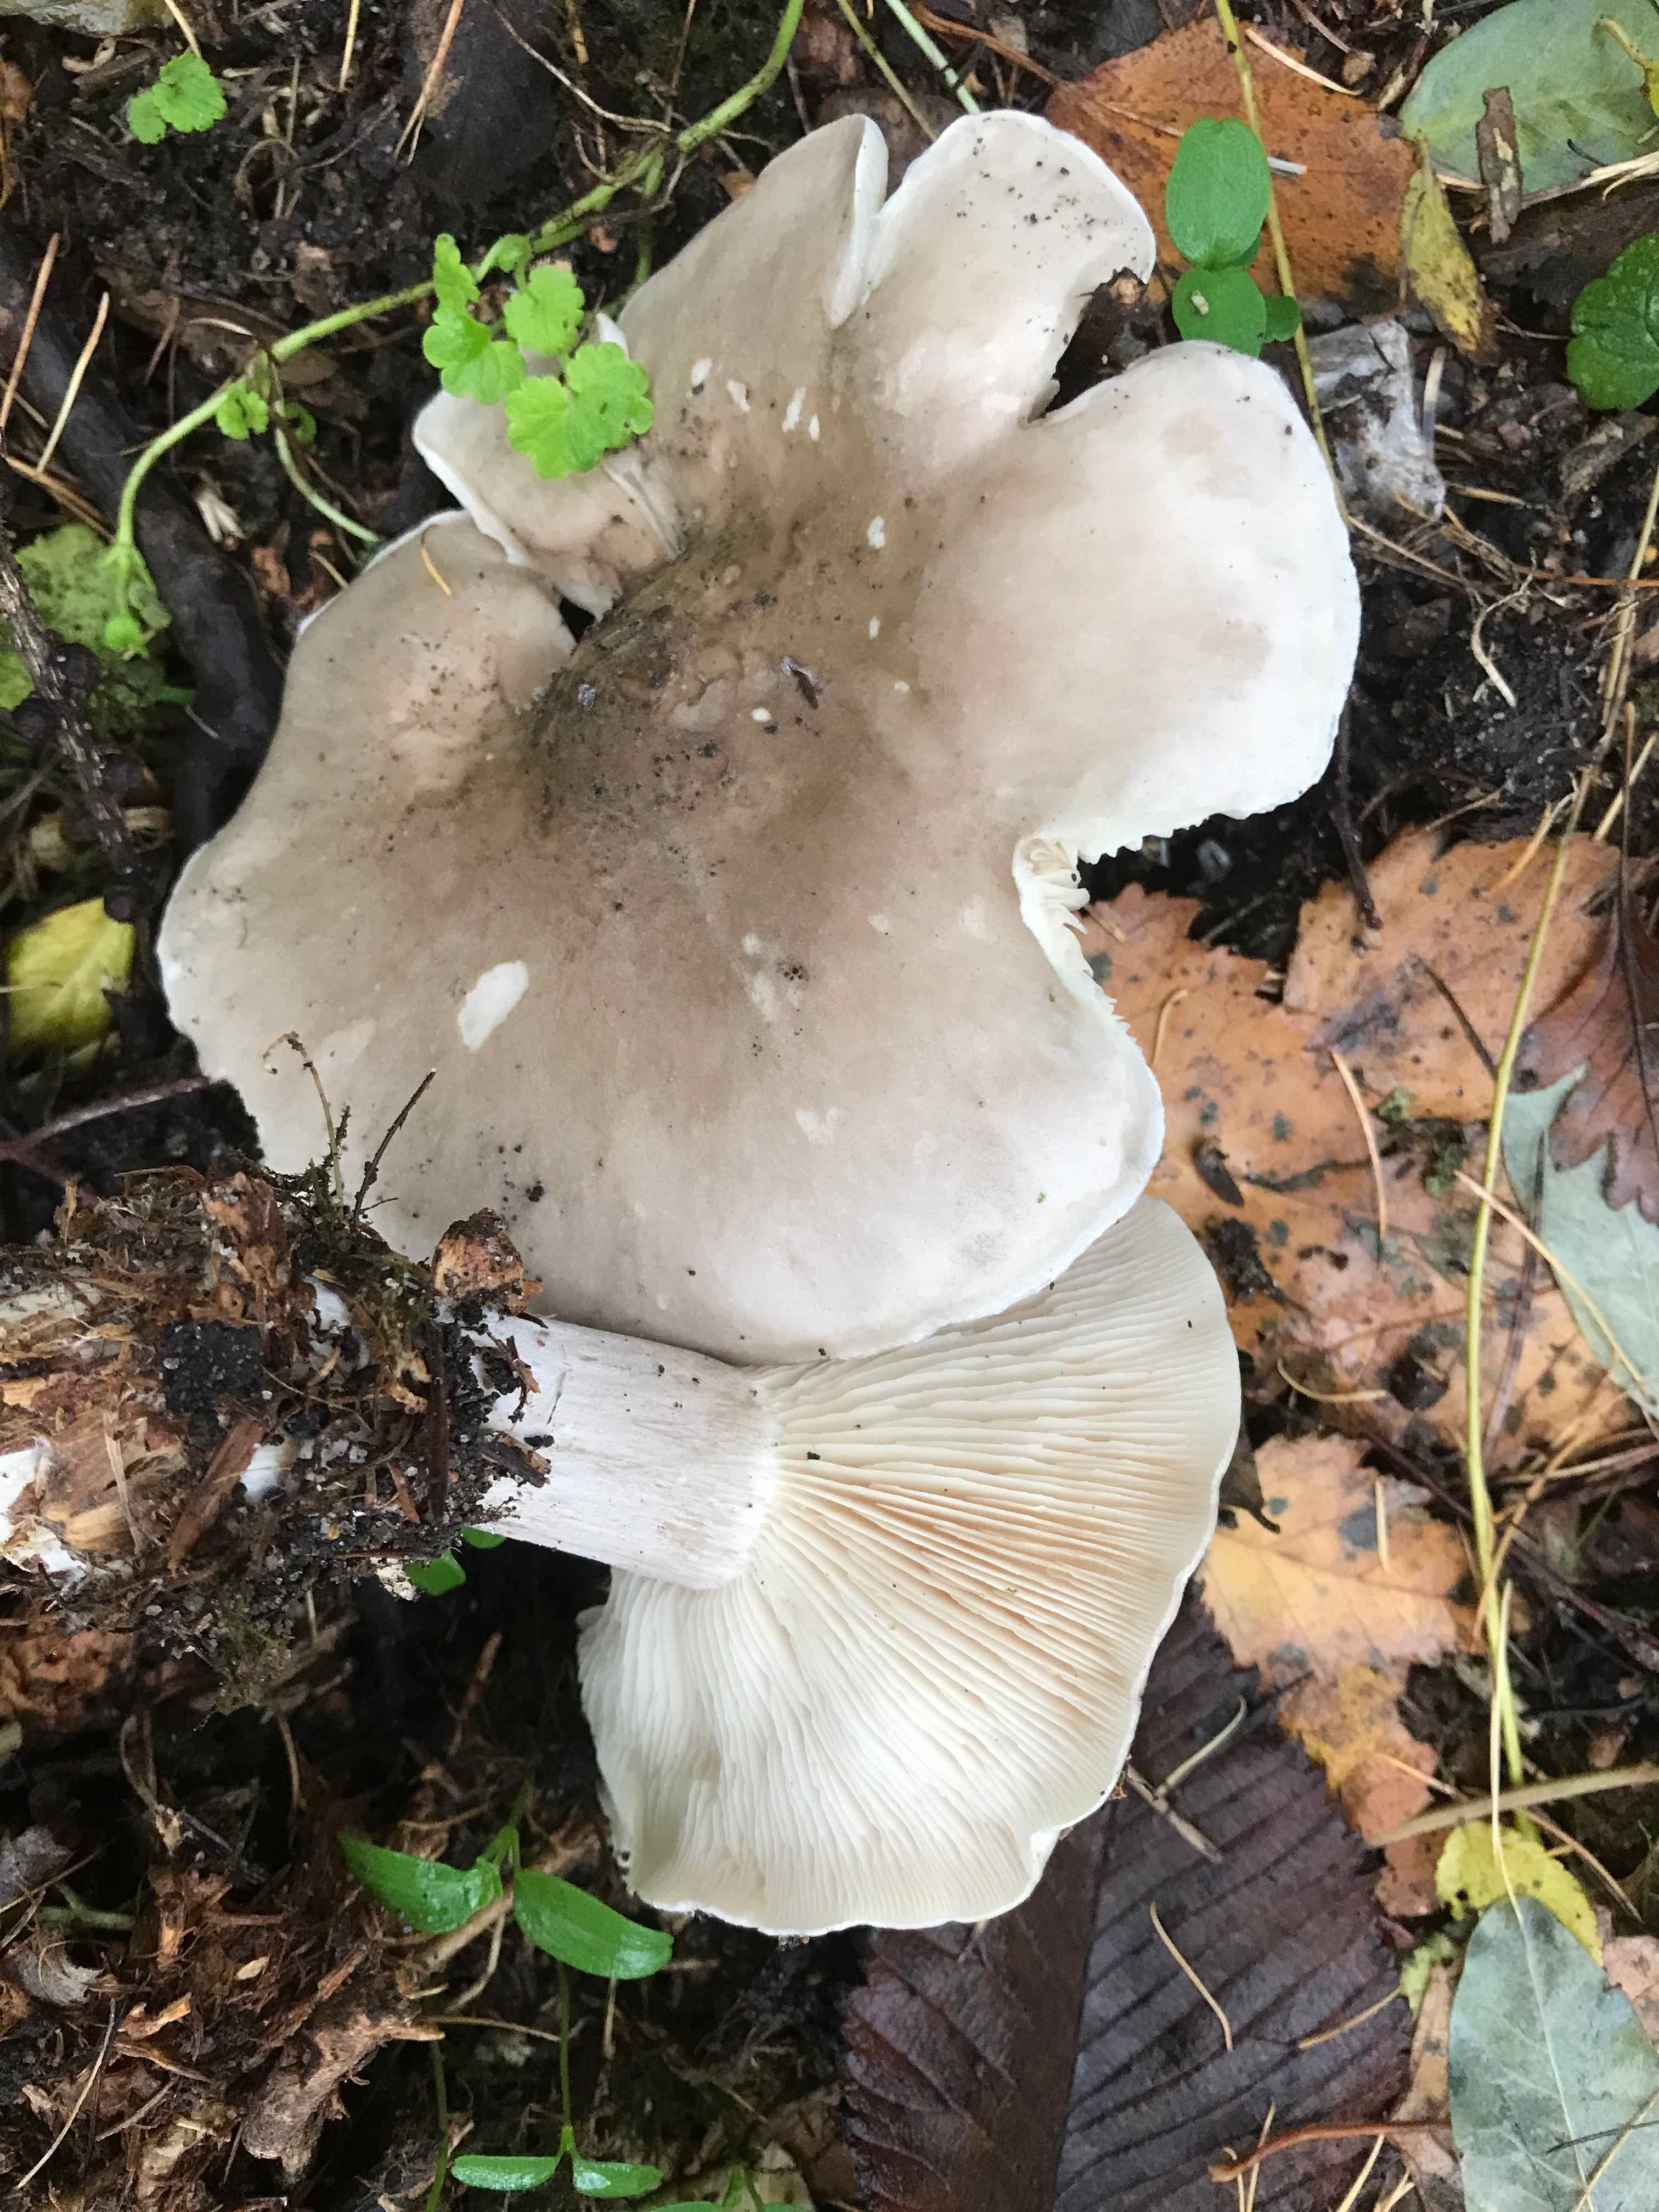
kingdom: Fungi
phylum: Basidiomycota
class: Agaricomycetes
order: Agaricales
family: Tricholomataceae
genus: Clitocybe
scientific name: Clitocybe nebularis
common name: tåge-tragthat
